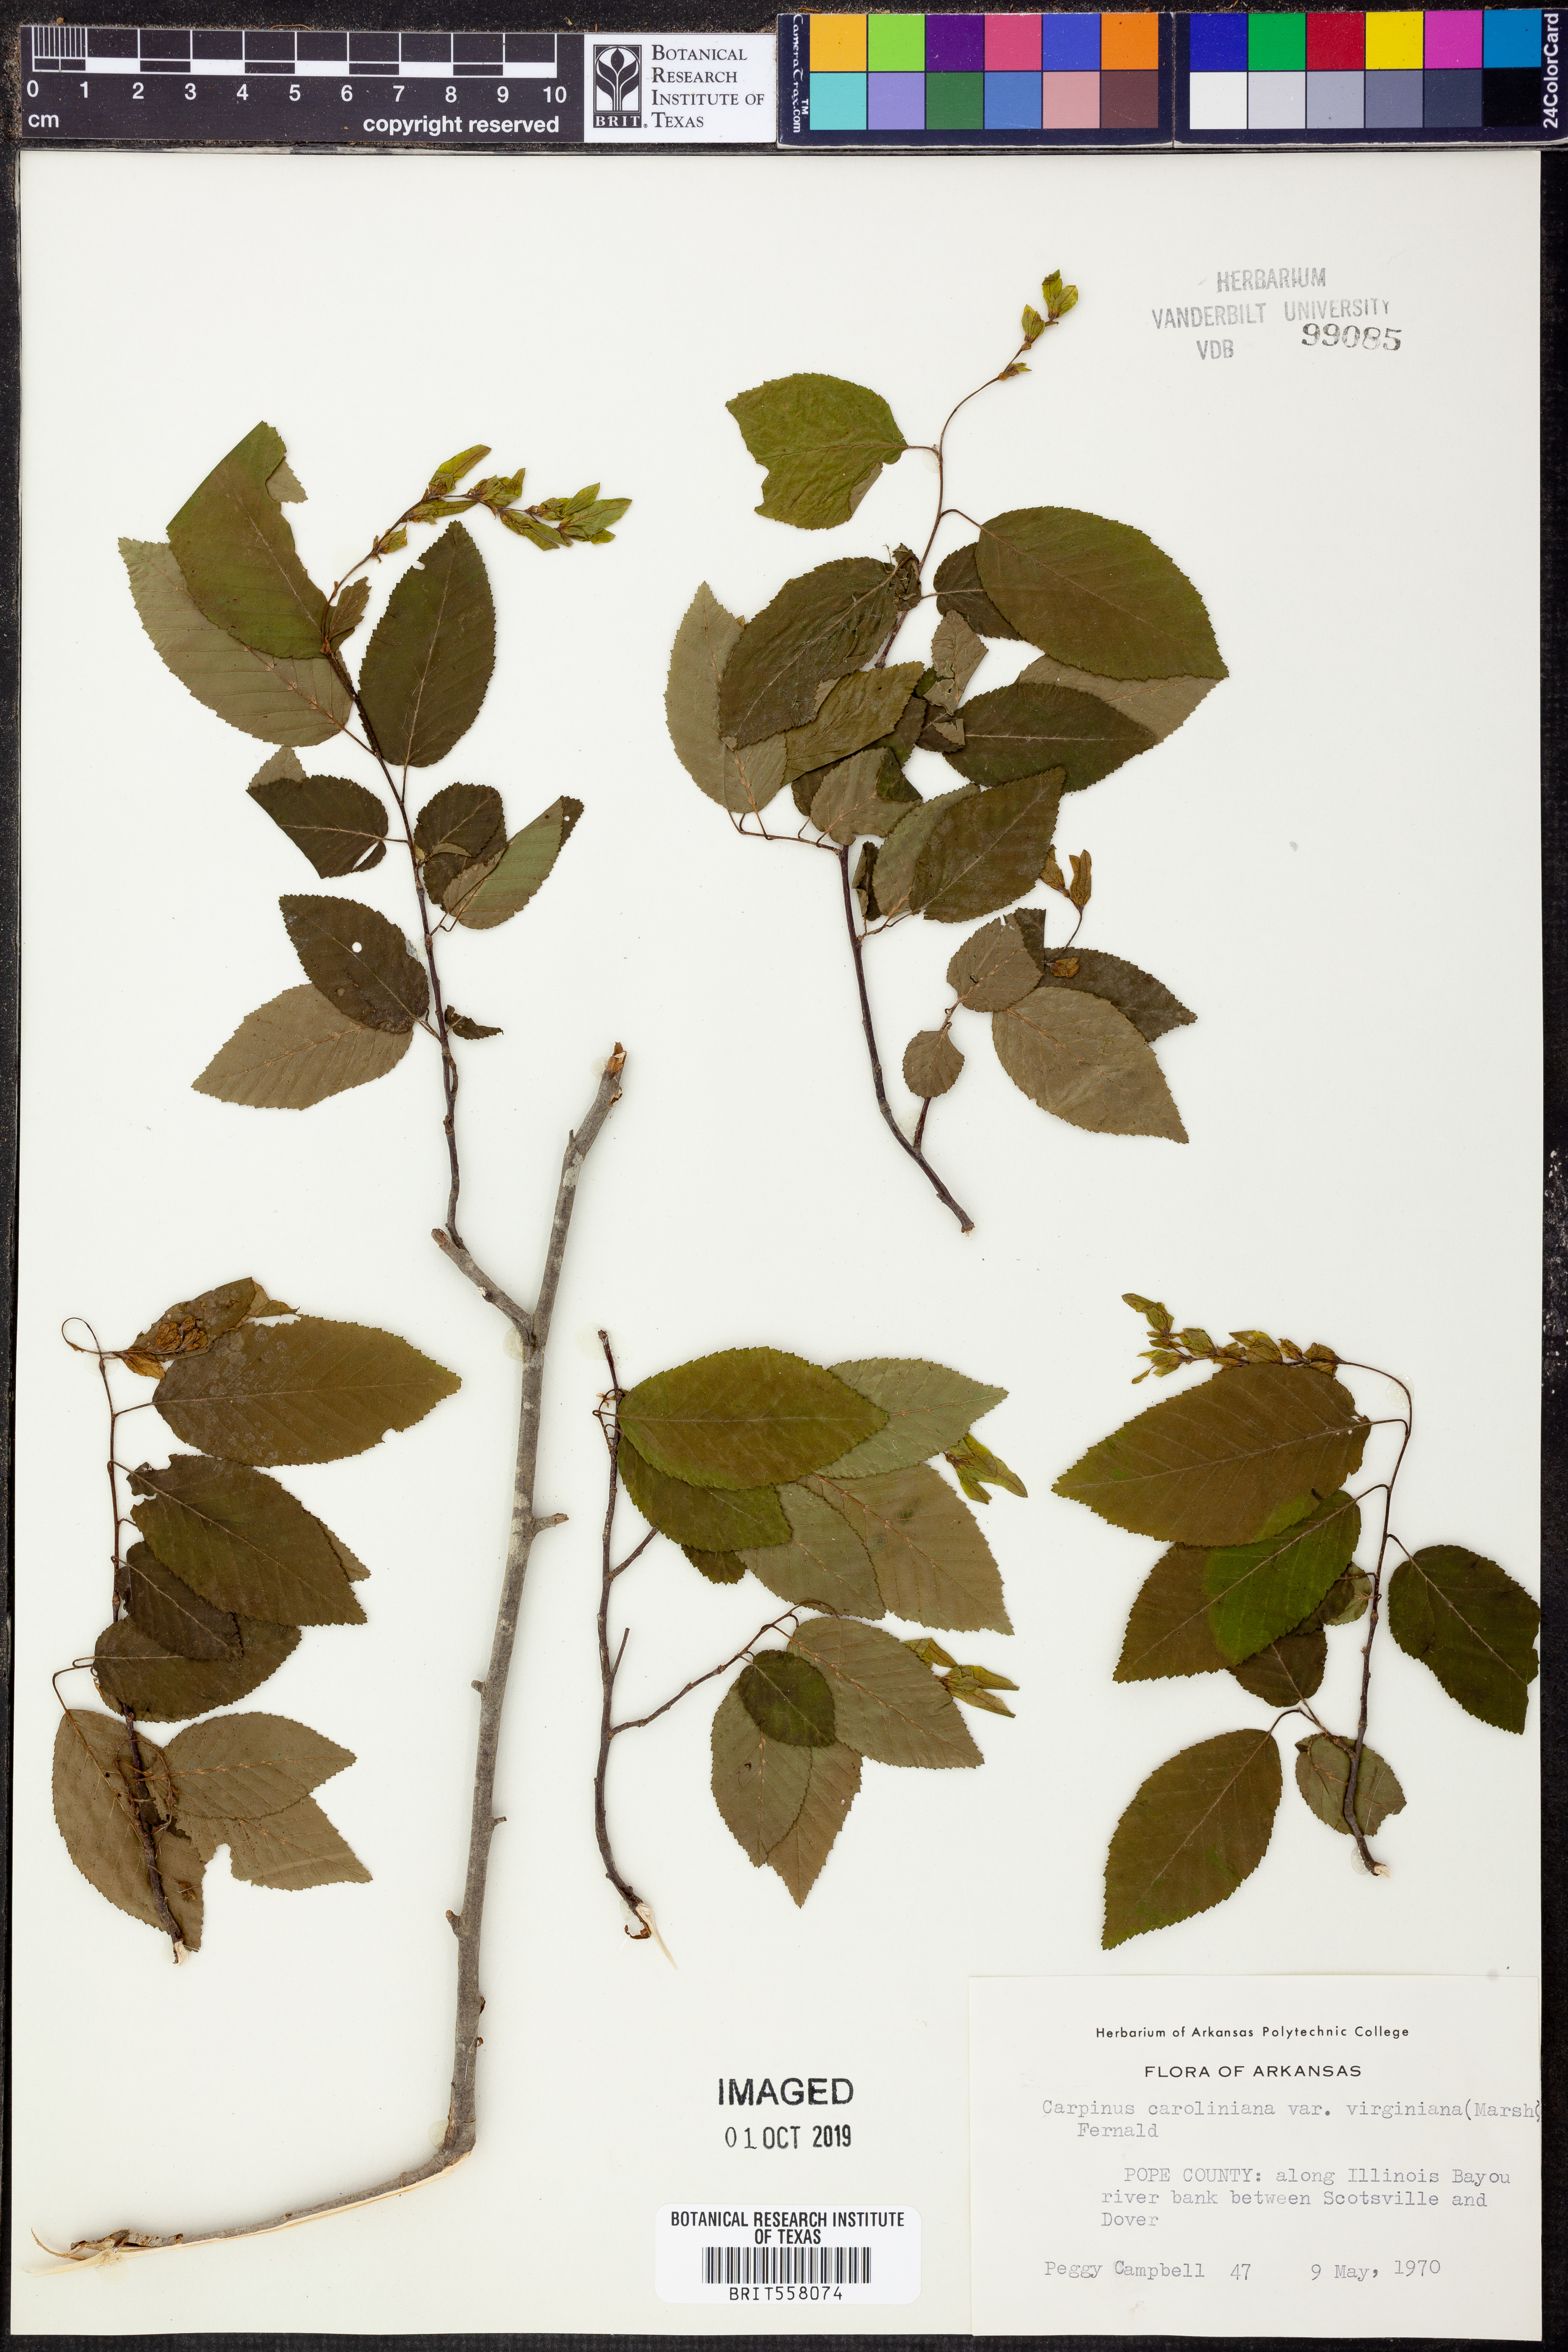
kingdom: Plantae
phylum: Tracheophyta
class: Magnoliopsida
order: Fagales
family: Betulaceae
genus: Carpinus
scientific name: Carpinus caroliniana
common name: American hornbeam
